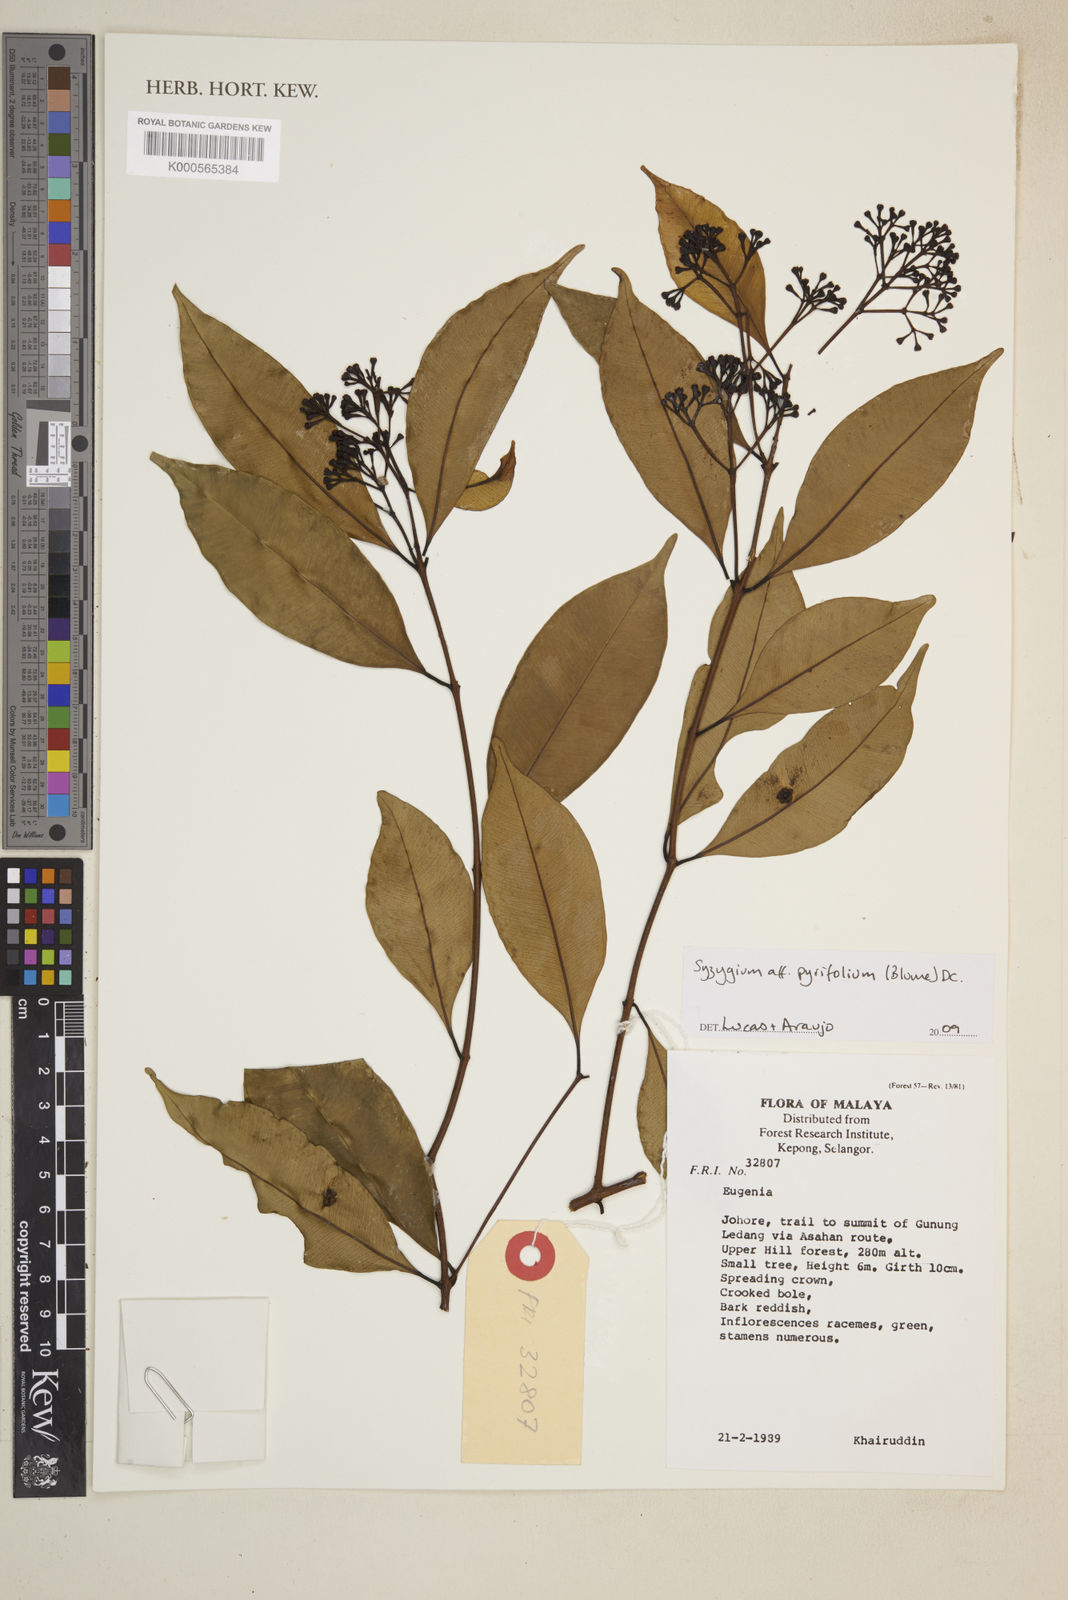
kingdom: Plantae
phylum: Tracheophyta
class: Magnoliopsida
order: Myrtales
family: Myrtaceae
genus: Syzygium
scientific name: Syzygium
